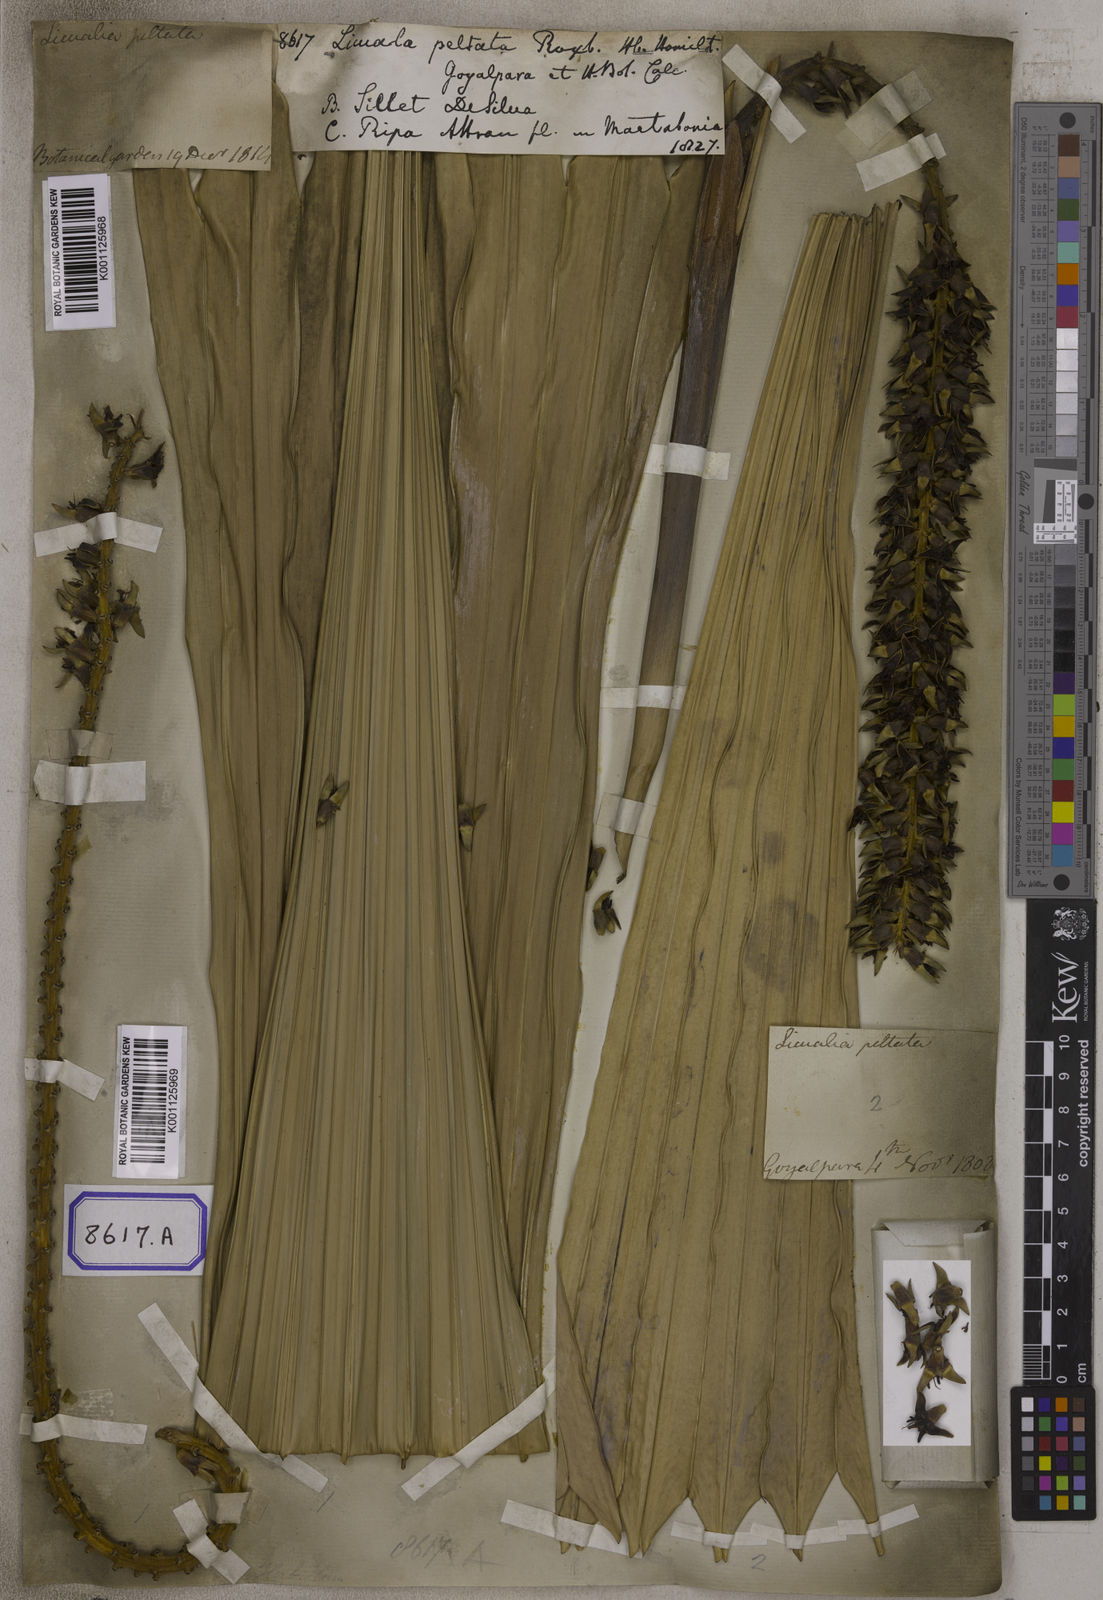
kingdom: Plantae
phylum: Tracheophyta
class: Liliopsida
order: Arecales
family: Arecaceae
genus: Licuala
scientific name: Licuala
